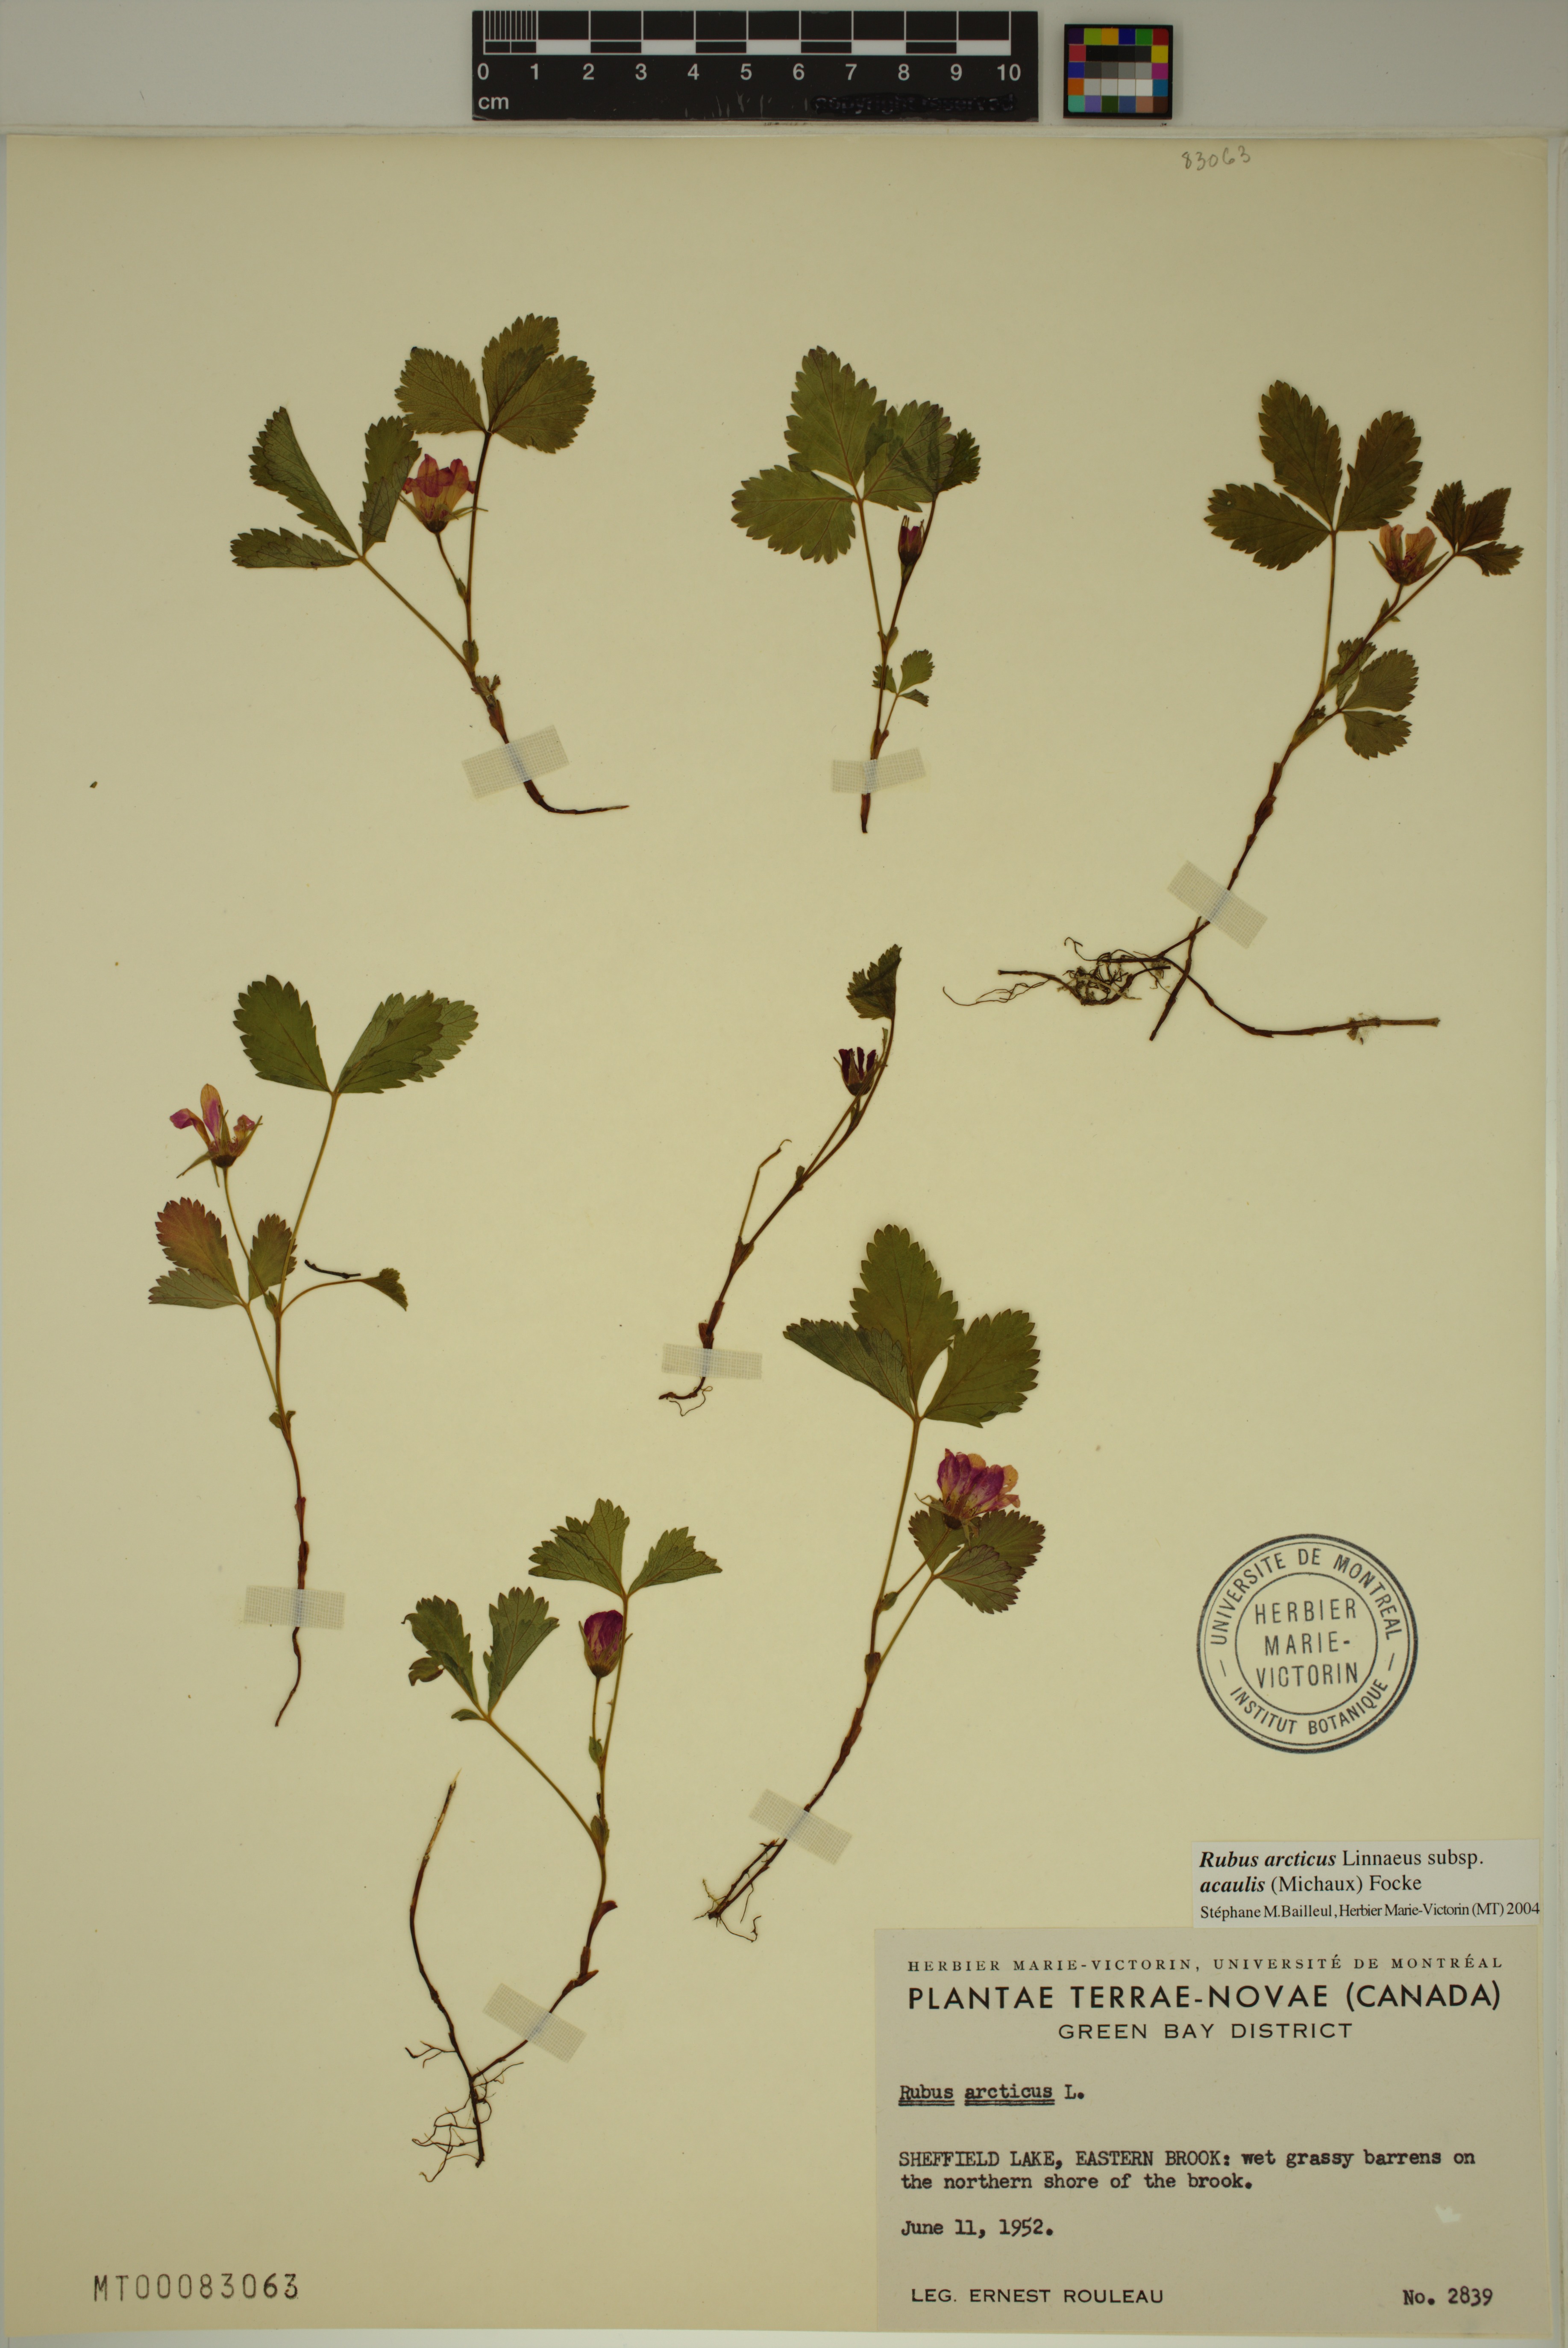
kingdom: Plantae
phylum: Tracheophyta
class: Magnoliopsida
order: Rosales
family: Rosaceae
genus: Rubus
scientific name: Rubus arcticus
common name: Arctic bramble
